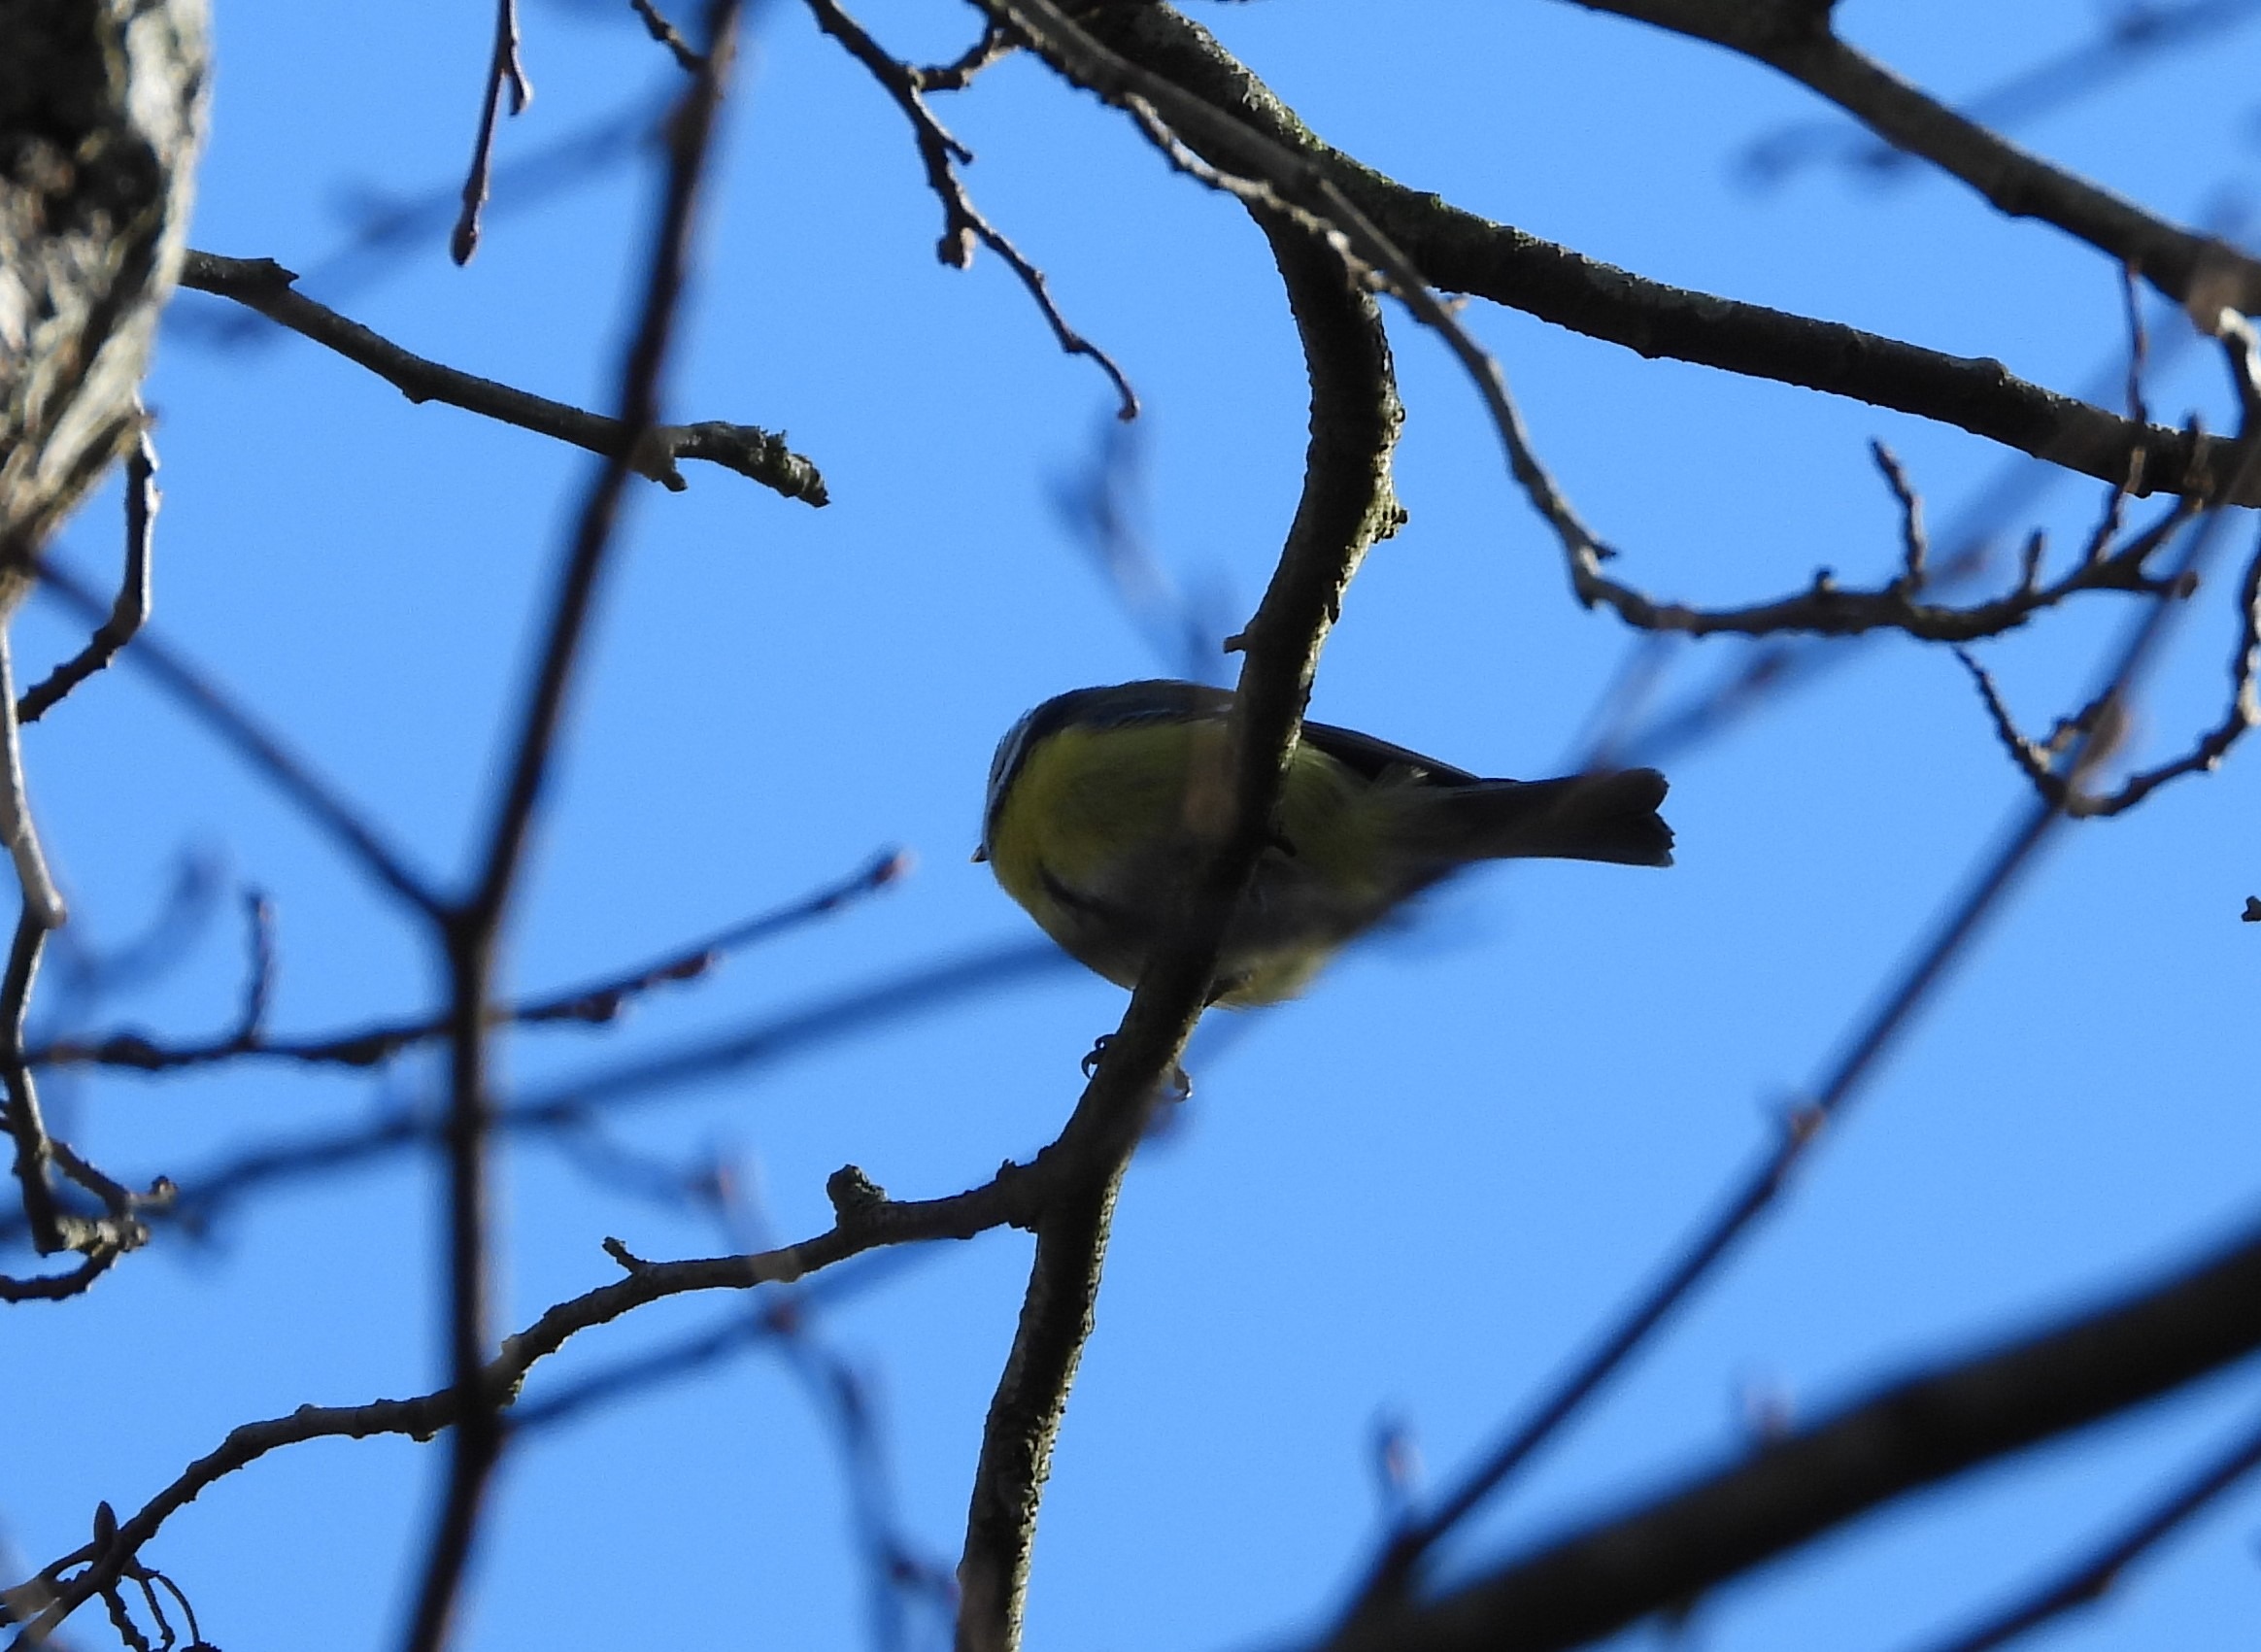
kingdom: Animalia
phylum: Chordata
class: Aves
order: Passeriformes
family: Paridae
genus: Cyanistes
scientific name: Cyanistes caeruleus
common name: Blåmejse
